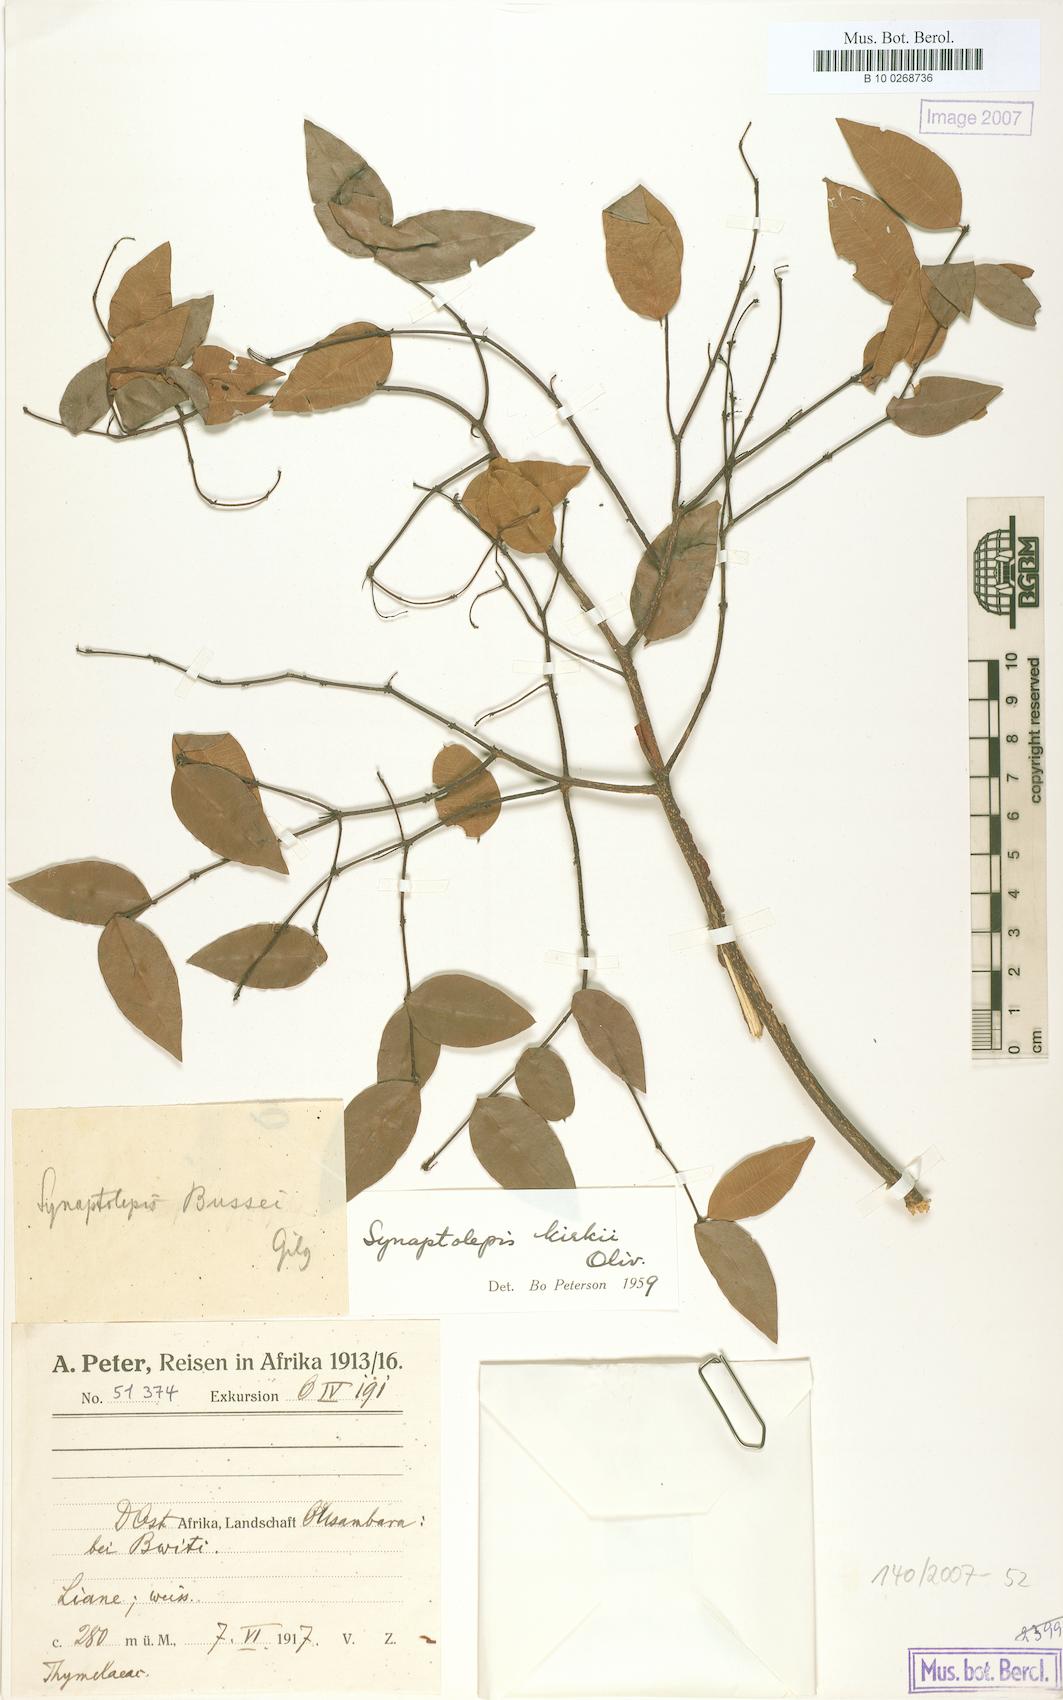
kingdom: Plantae
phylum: Tracheophyta
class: Magnoliopsida
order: Malvales
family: Thymelaeaceae
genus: Synaptolepis
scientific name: Synaptolepis kirkii
